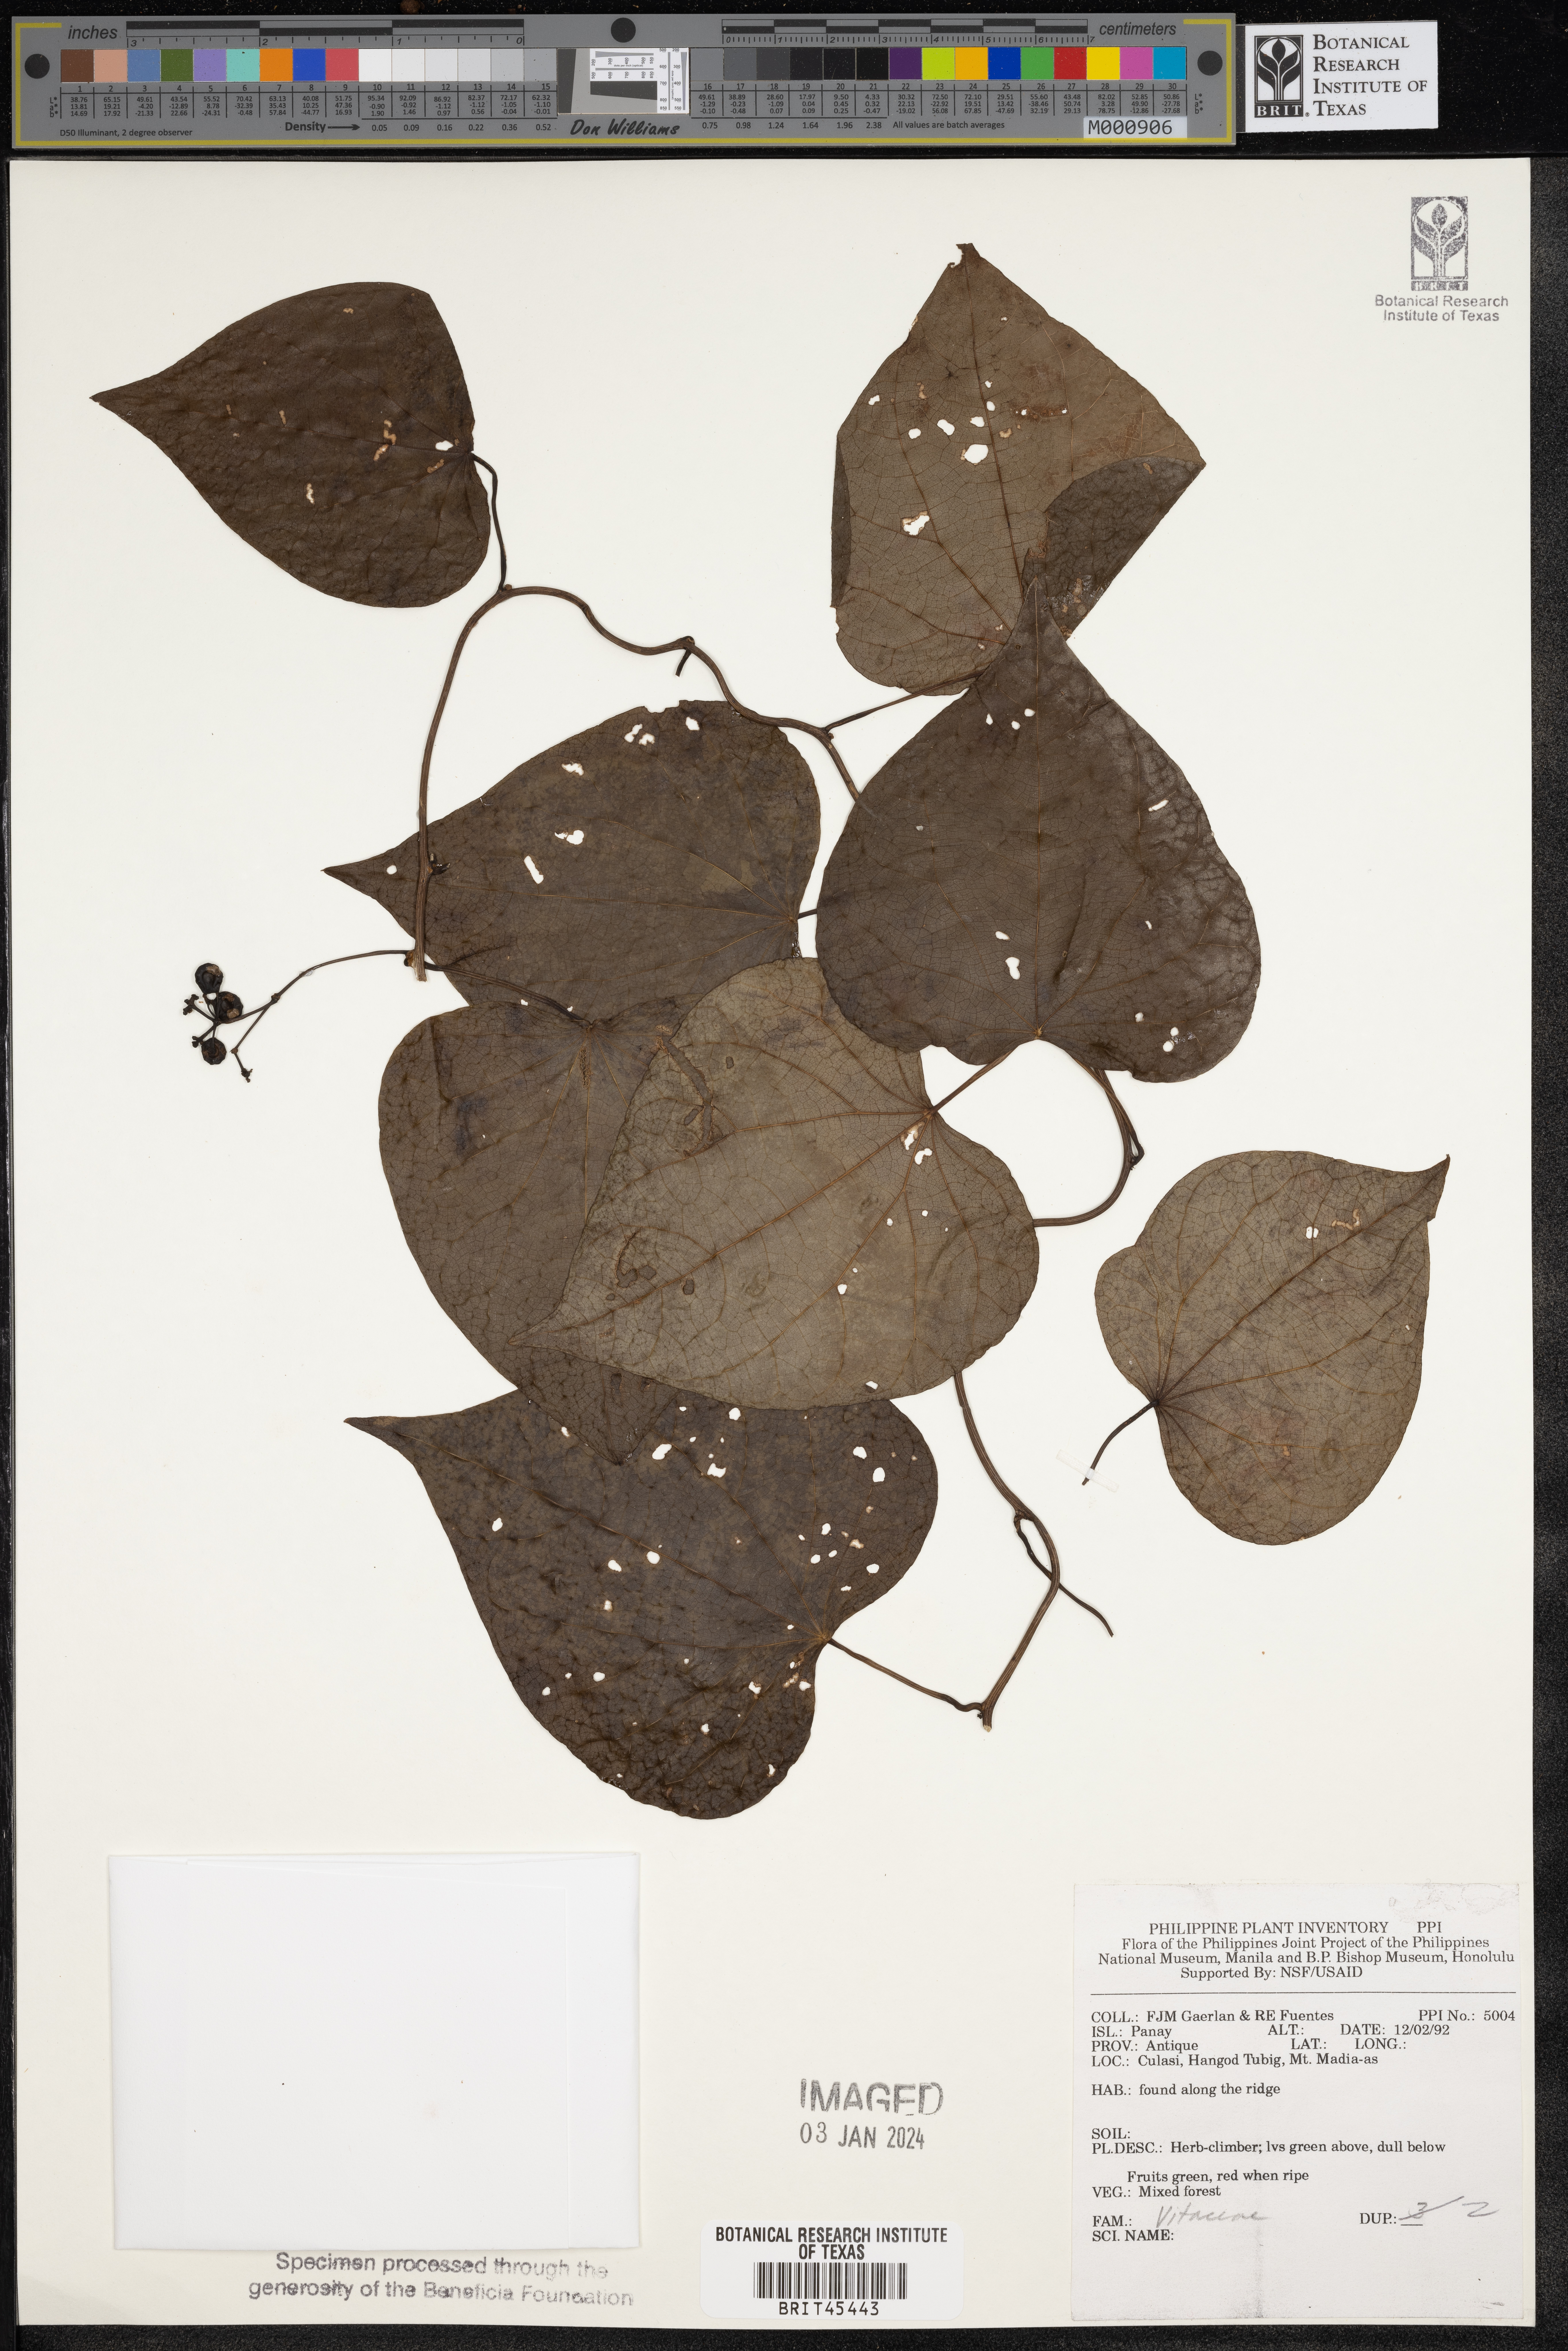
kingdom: Plantae
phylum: Tracheophyta
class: Magnoliopsida
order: Vitales
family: Vitaceae
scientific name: Vitaceae
